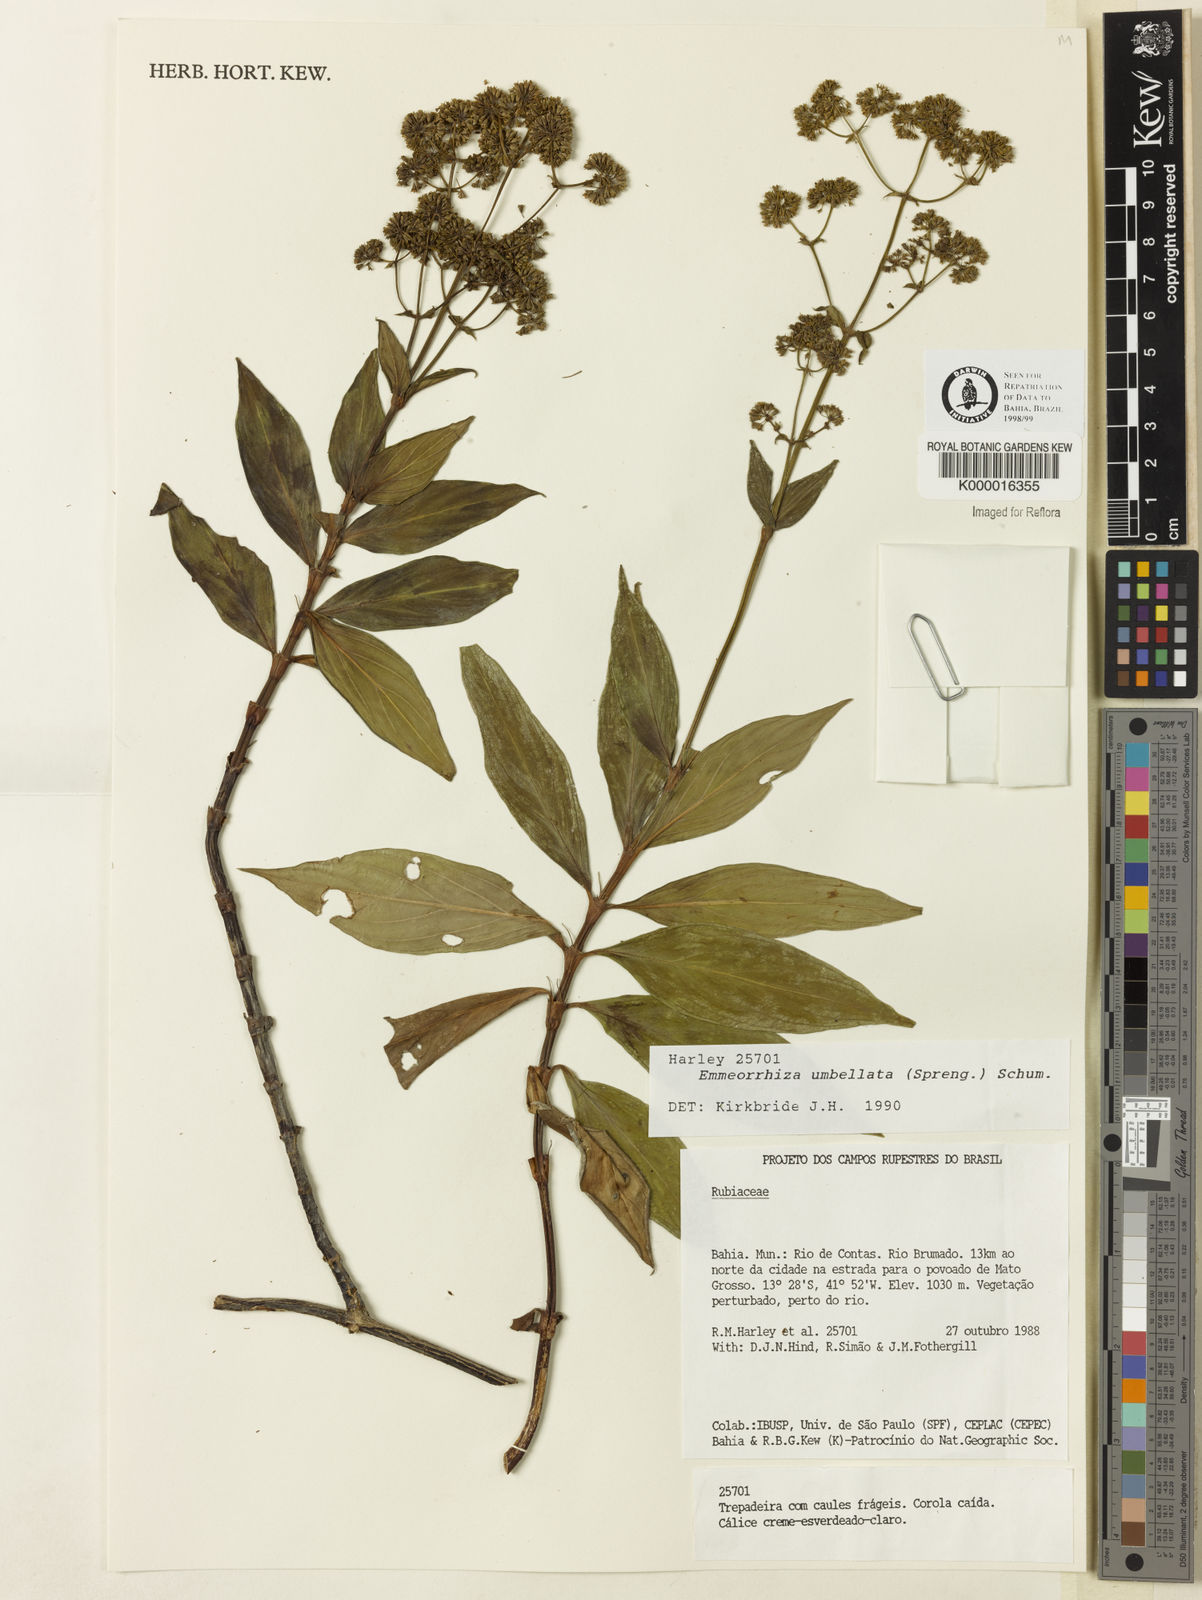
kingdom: Plantae
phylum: Tracheophyta
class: Magnoliopsida
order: Gentianales
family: Rubiaceae
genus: Emmeorhiza
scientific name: Emmeorhiza umbellata
